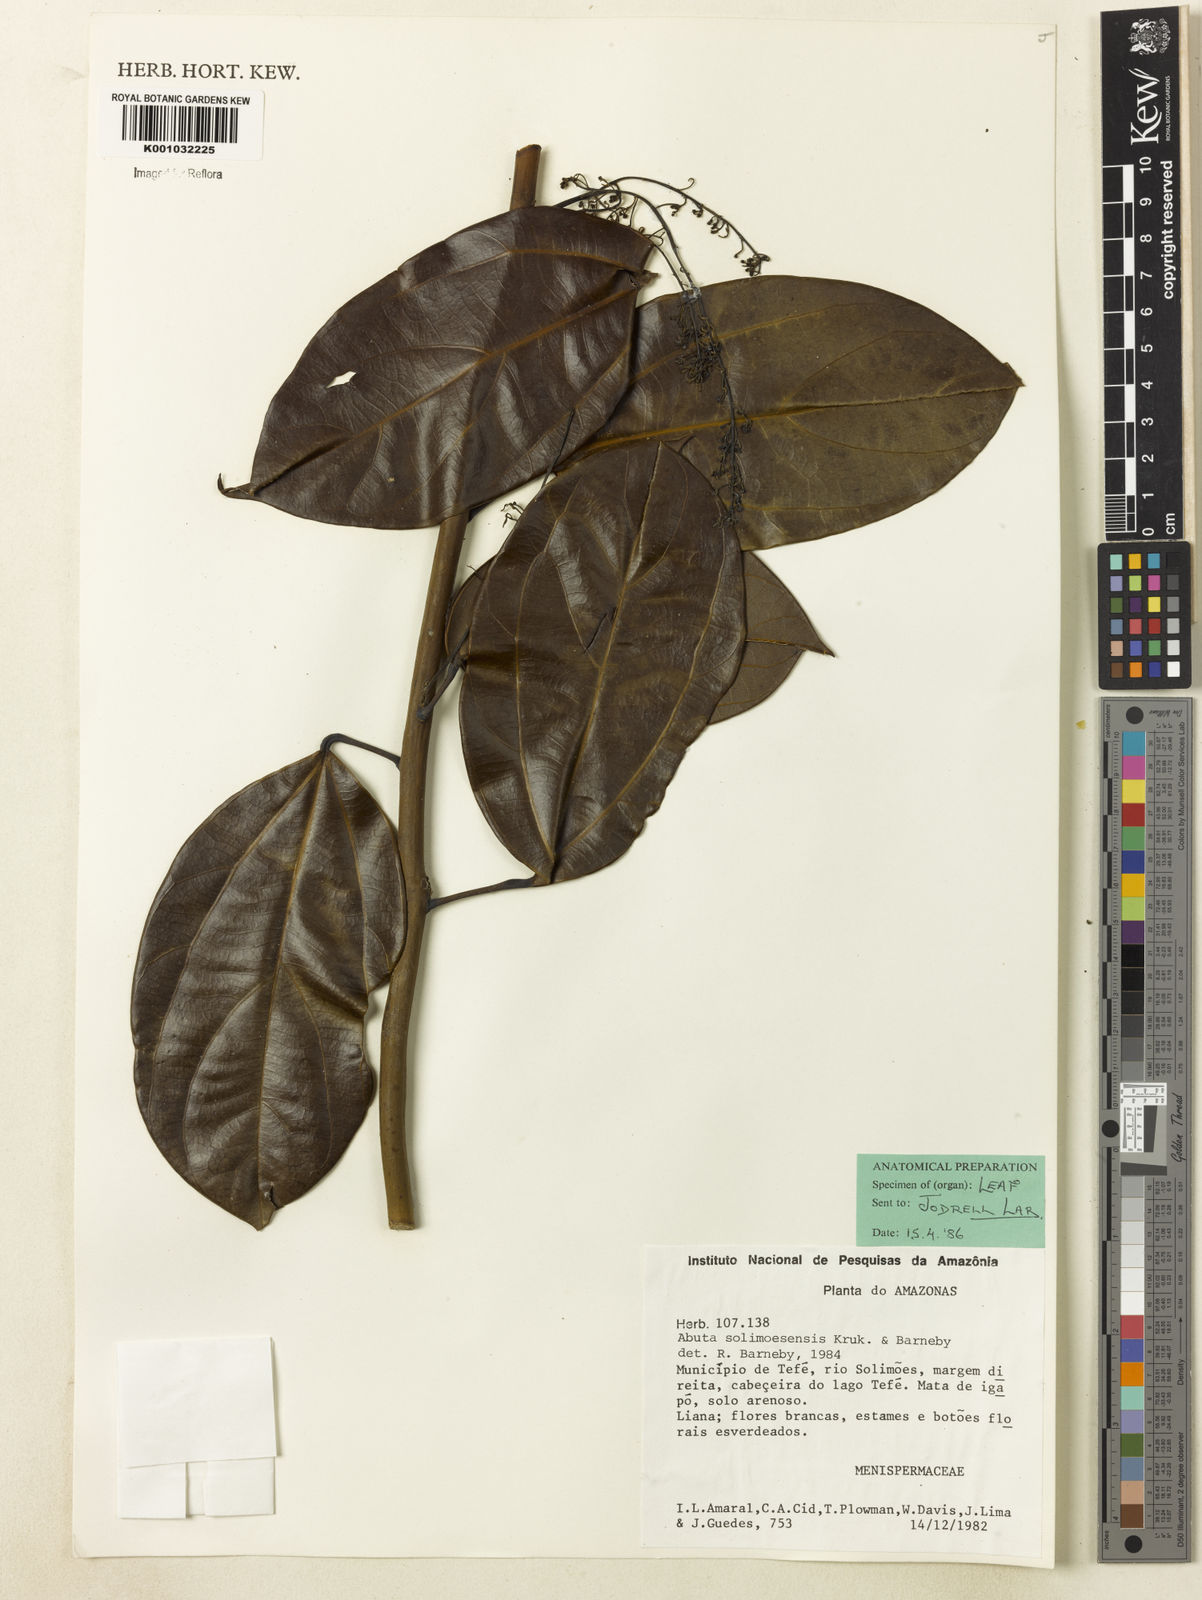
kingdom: Plantae
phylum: Tracheophyta
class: Magnoliopsida
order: Ranunculales
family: Menispermaceae
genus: Abuta
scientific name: Abuta solimoesensis
